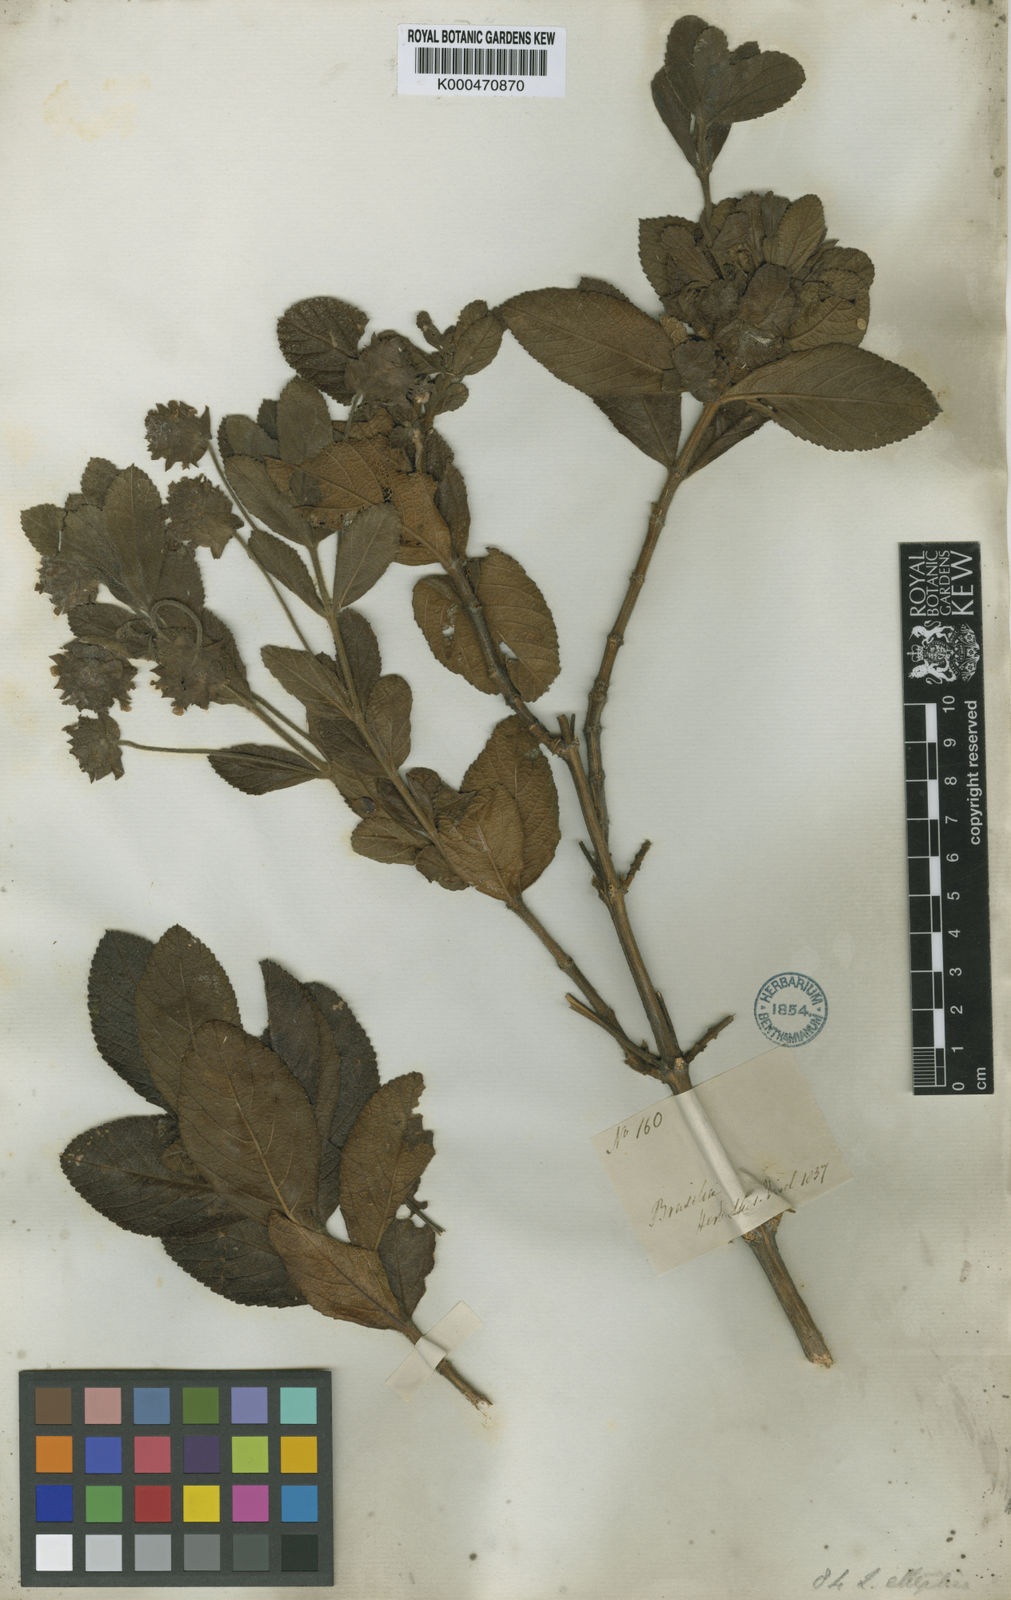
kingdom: Plantae
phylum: Tracheophyta
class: Magnoliopsida
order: Lamiales
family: Verbenaceae
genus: Lippia
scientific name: Lippia elliptica
